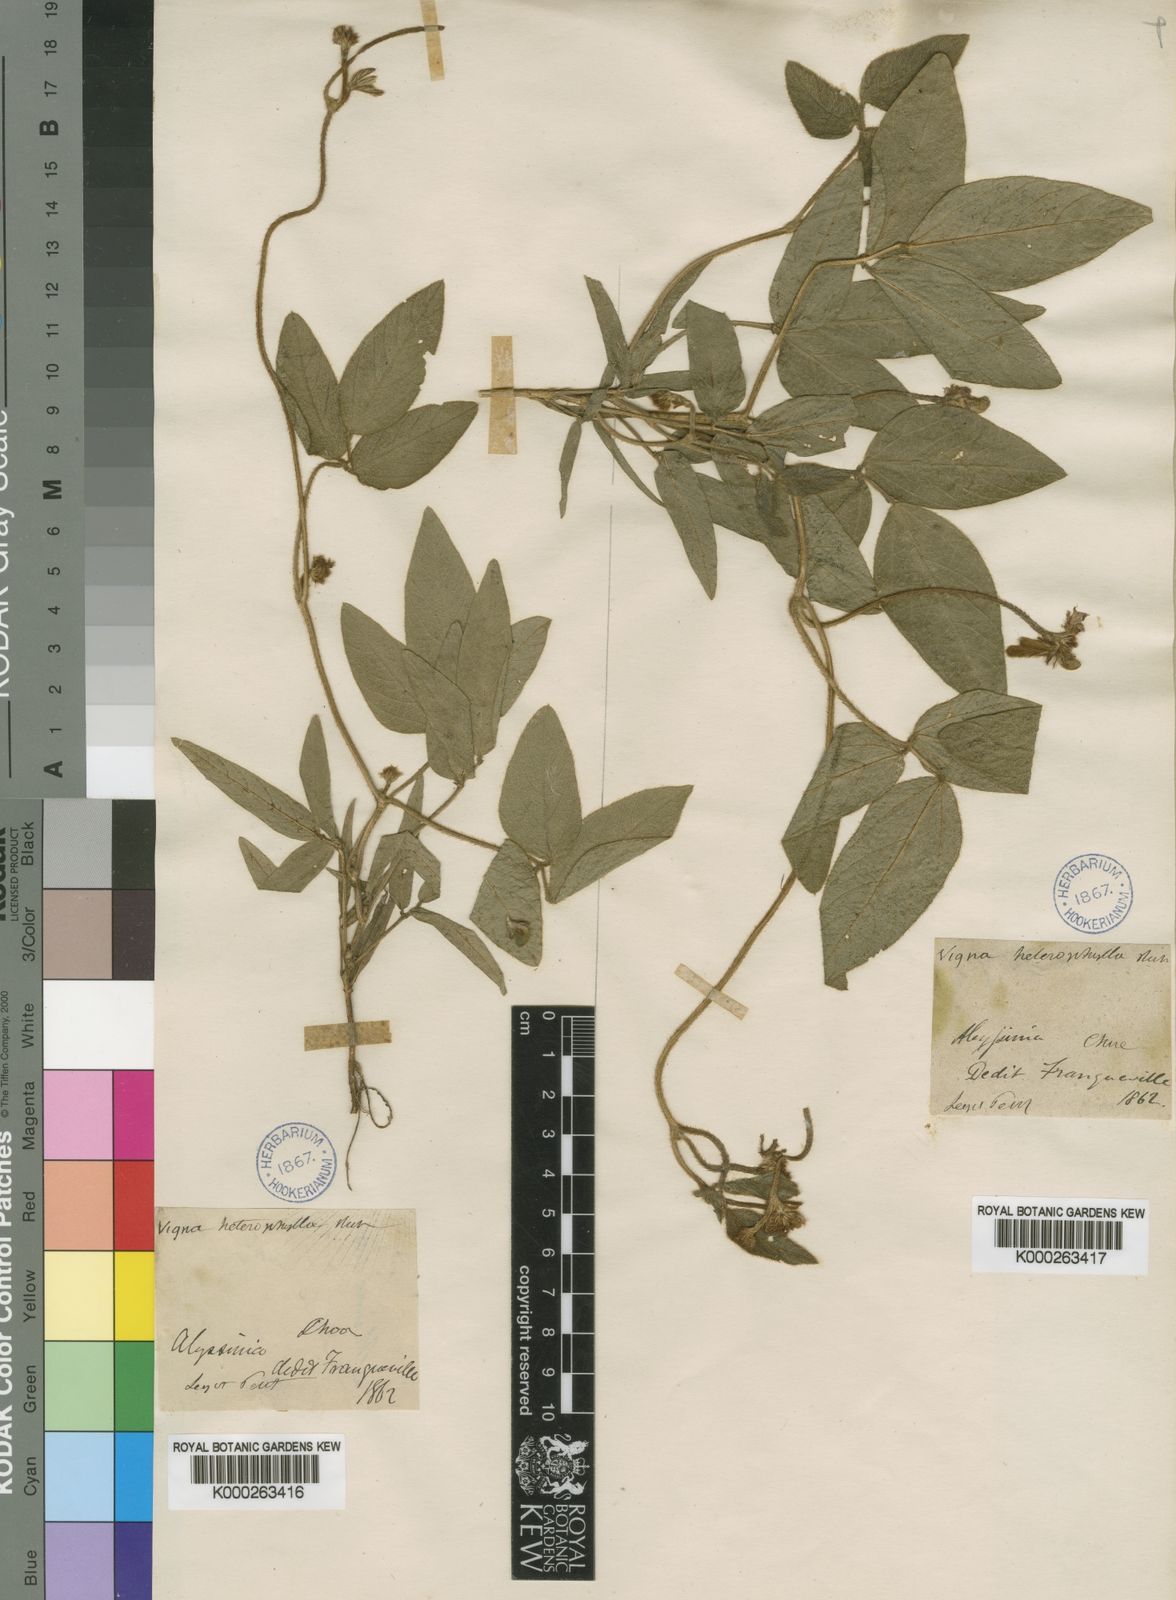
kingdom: Plantae
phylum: Tracheophyta
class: Magnoliopsida
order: Fabales
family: Fabaceae
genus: Vigna
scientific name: Vigna heterophylla
